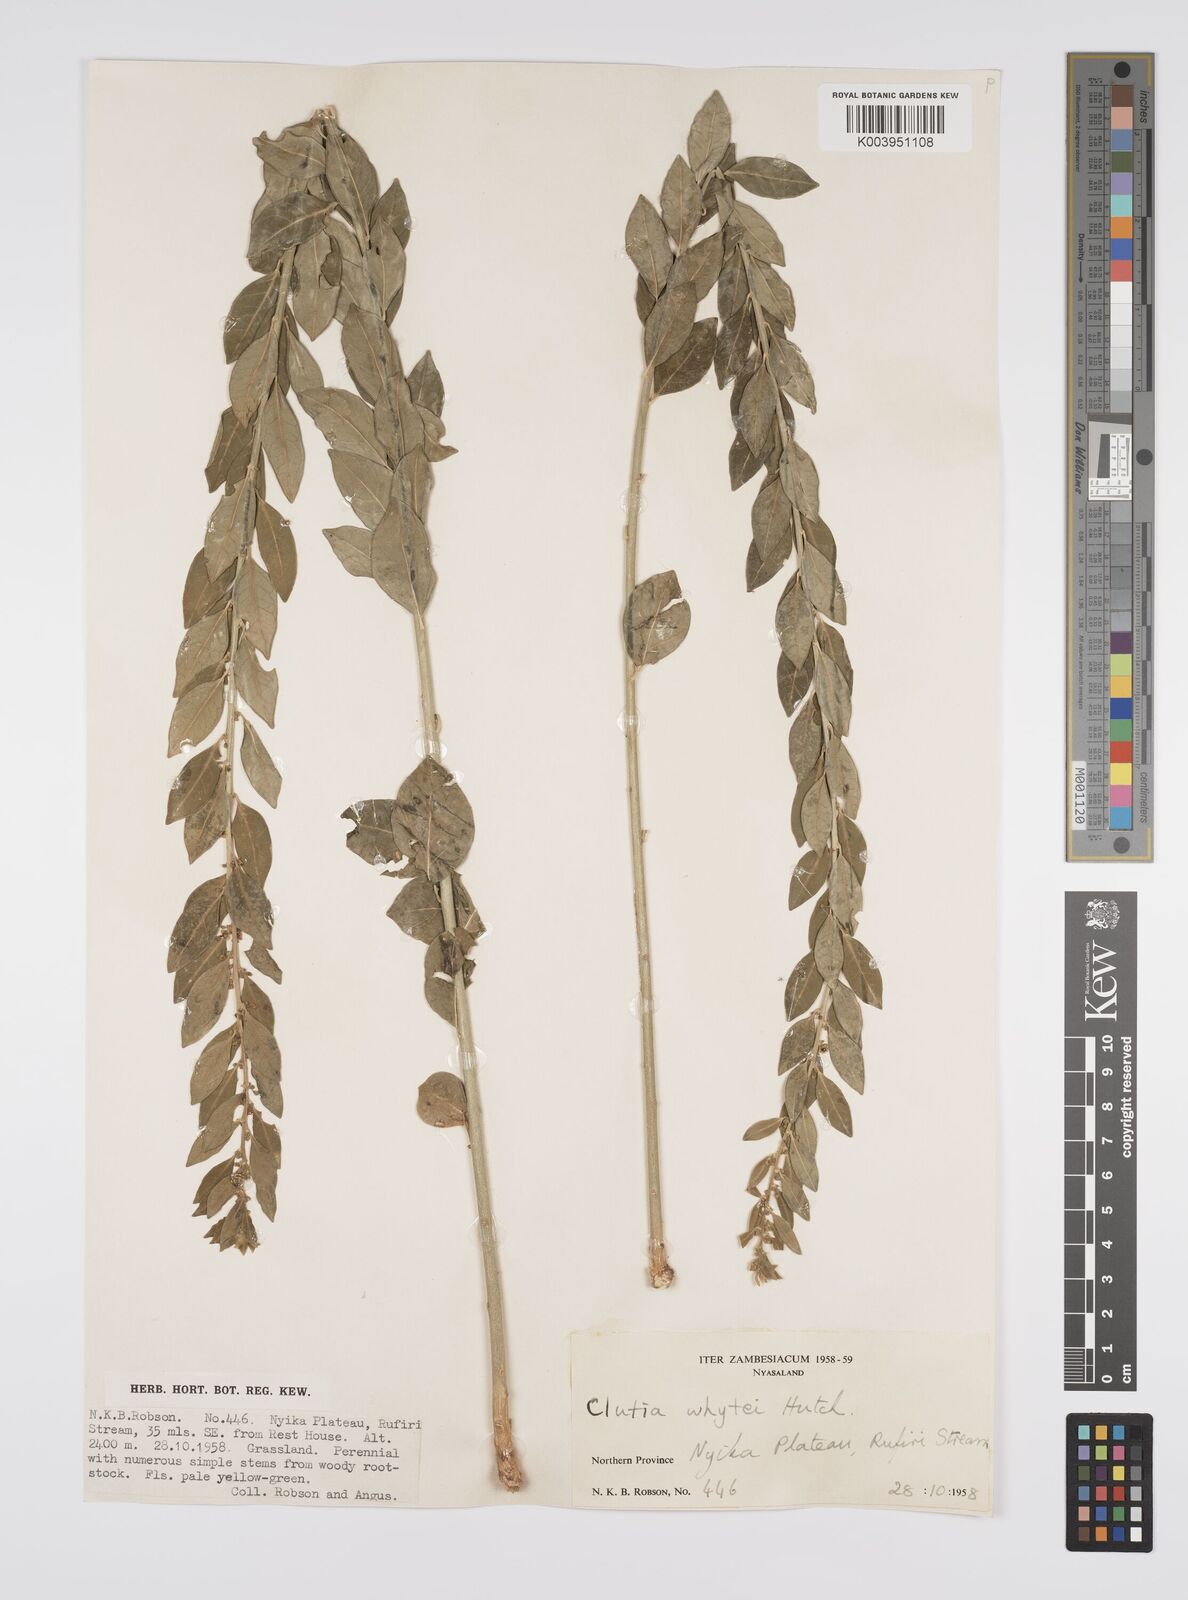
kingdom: Plantae
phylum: Tracheophyta
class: Magnoliopsida
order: Malpighiales
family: Peraceae
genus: Clutia
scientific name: Clutia
